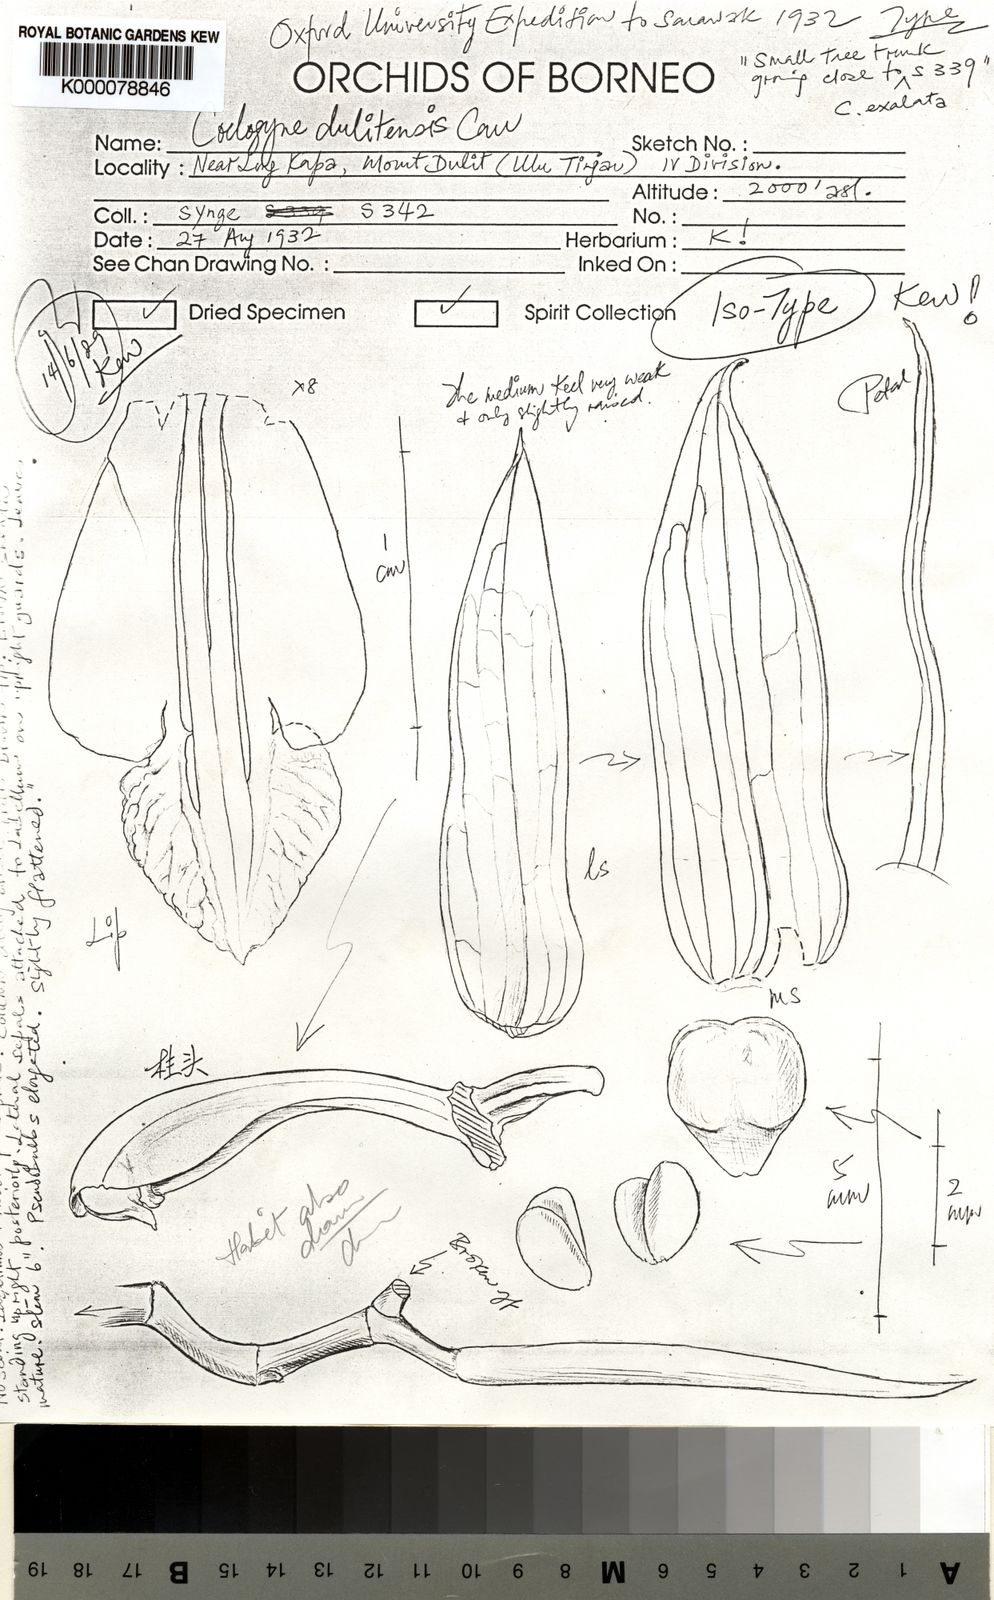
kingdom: Plantae
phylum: Tracheophyta
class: Liliopsida
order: Asparagales
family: Orchidaceae
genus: Coelogyne
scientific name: Coelogyne dulitensis
